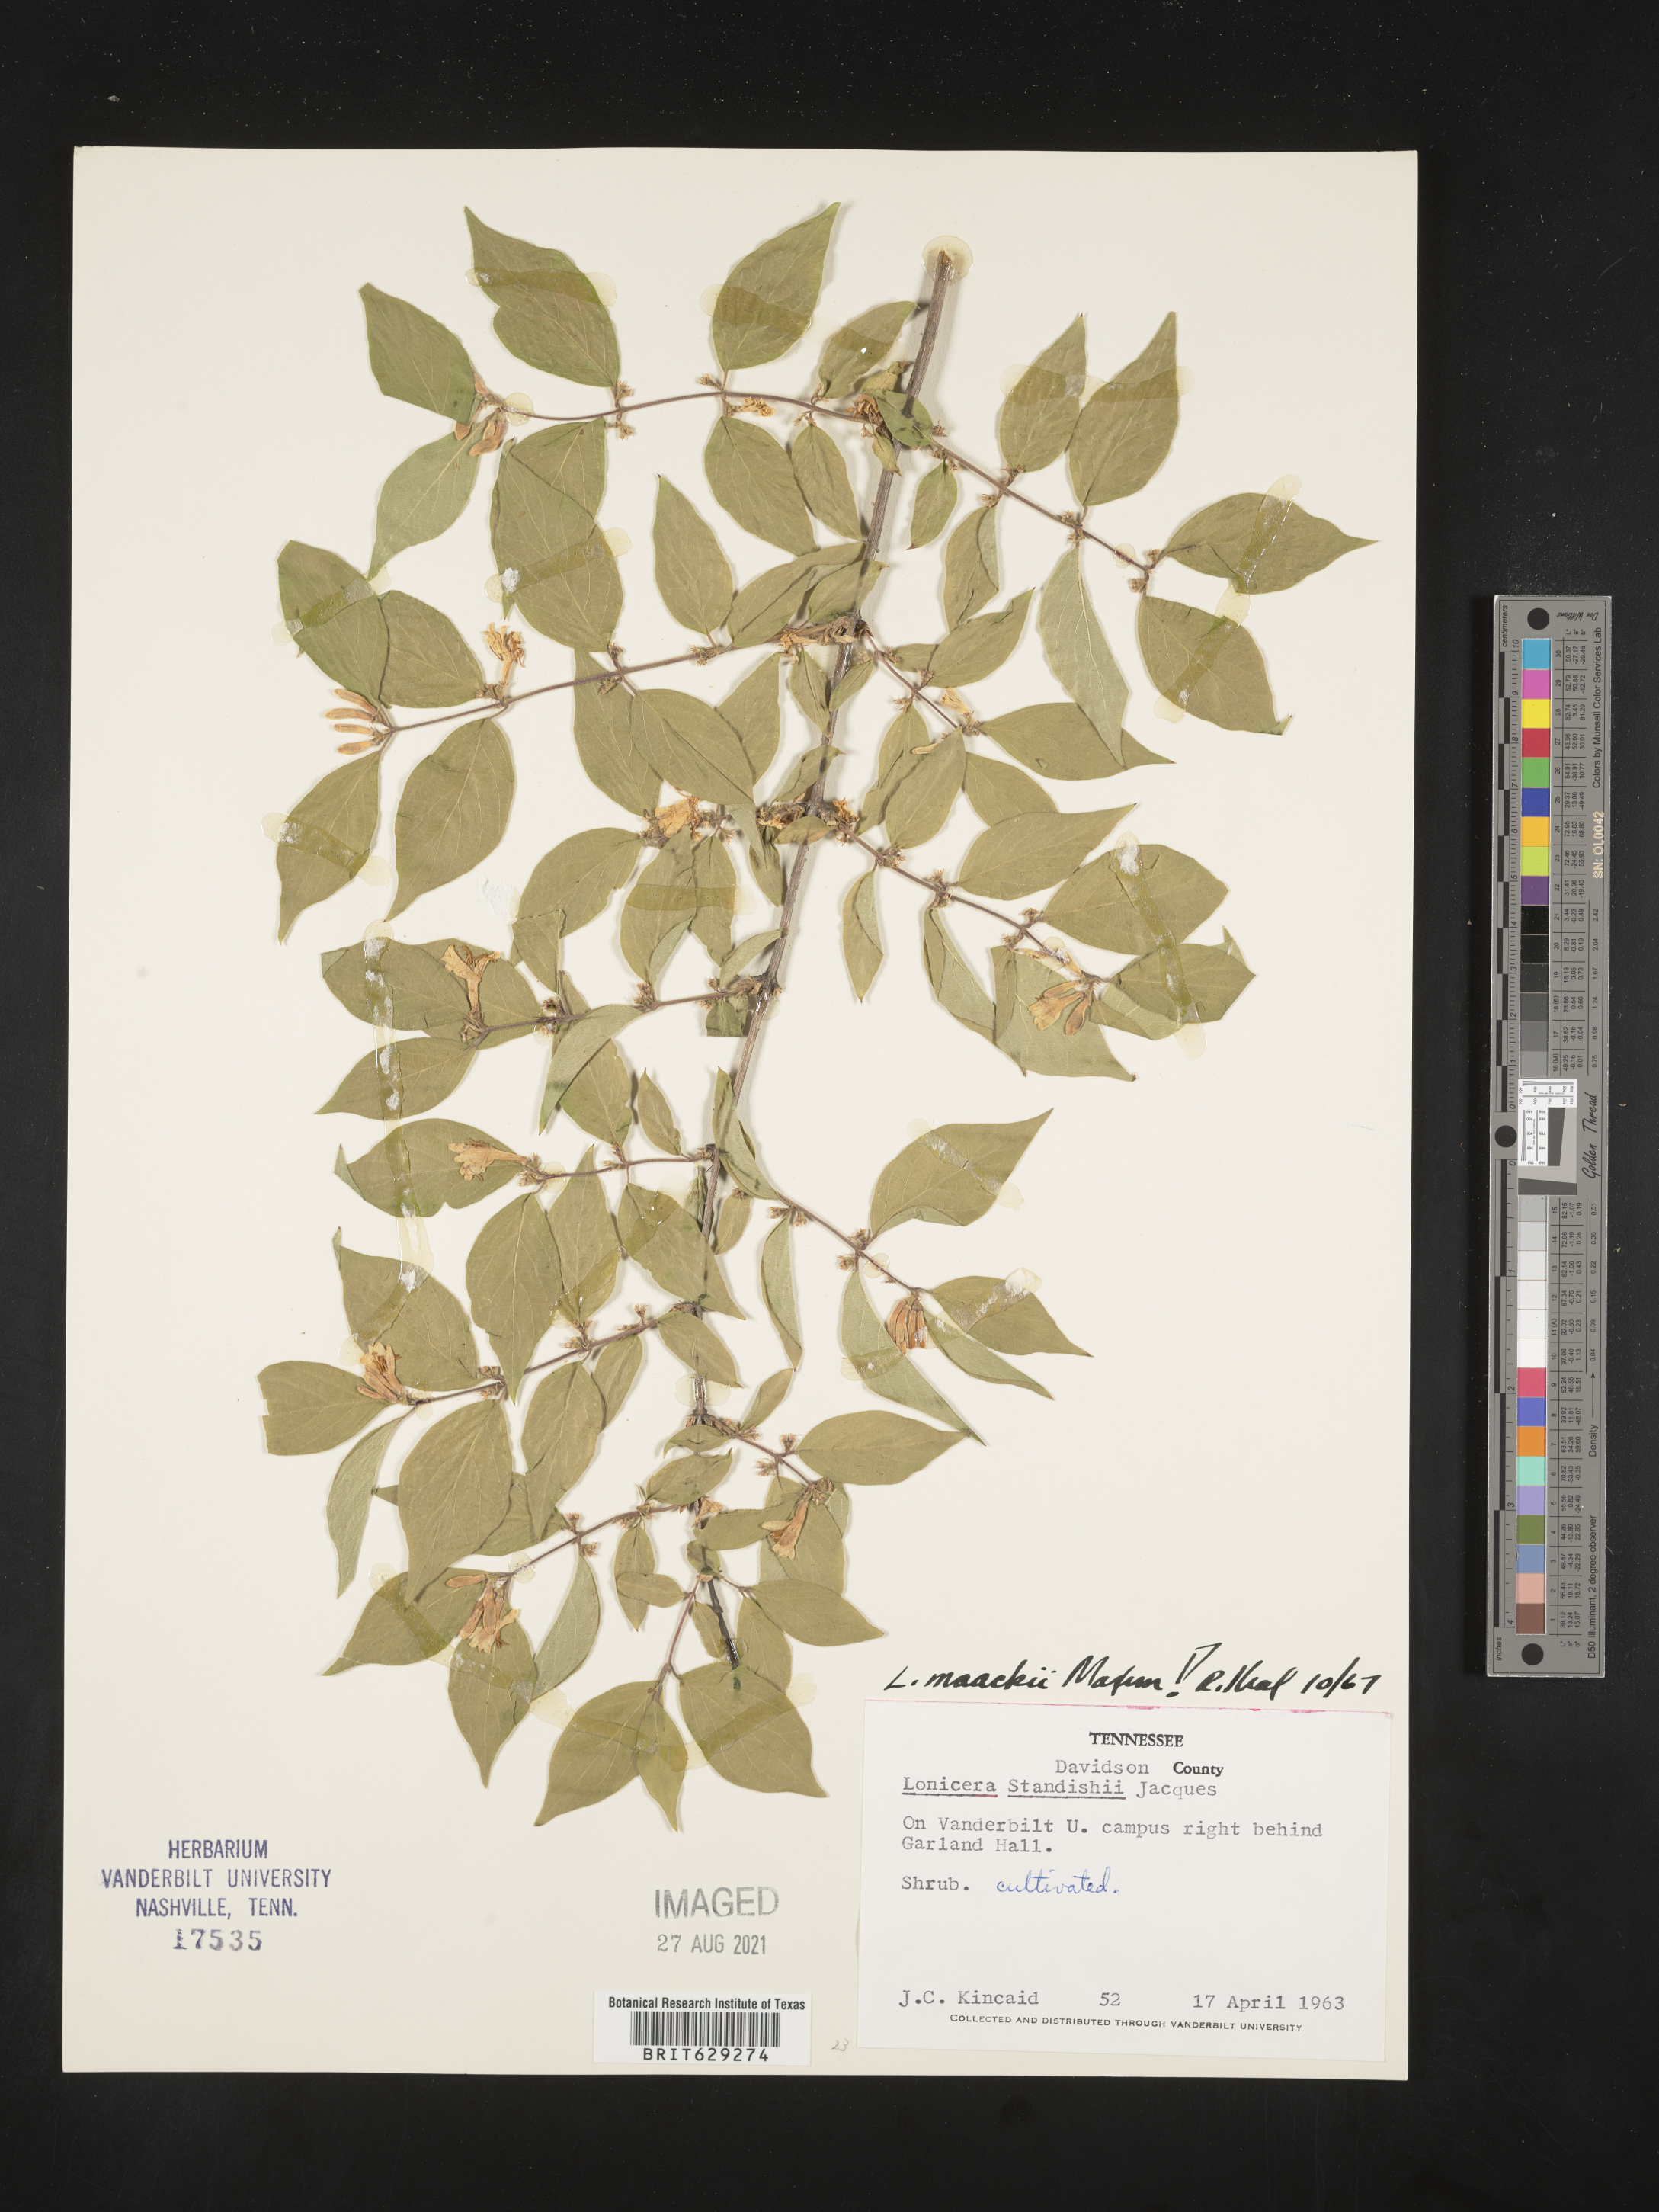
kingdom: Plantae
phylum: Tracheophyta
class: Magnoliopsida
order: Dipsacales
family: Caprifoliaceae
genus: Lonicera
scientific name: Lonicera maackii
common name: Amur honeysuckle
